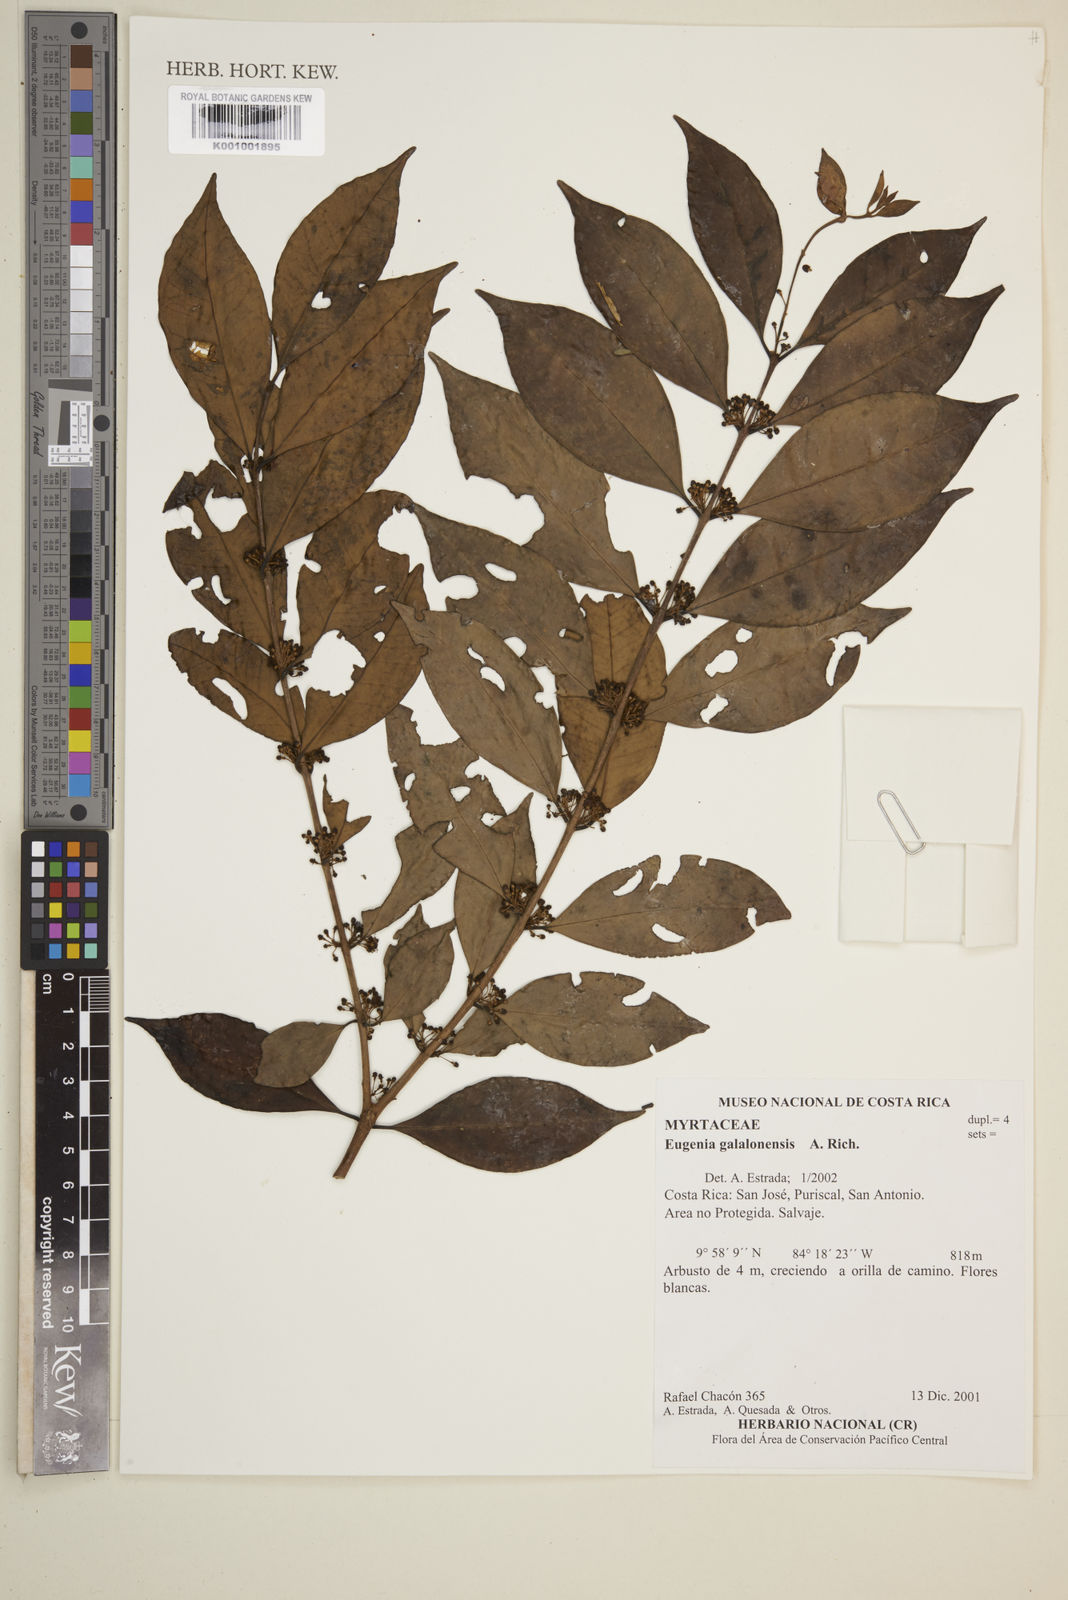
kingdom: Plantae
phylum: Tracheophyta
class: Magnoliopsida
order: Myrtales
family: Myrtaceae
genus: Eugenia
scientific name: Eugenia galalonensis
